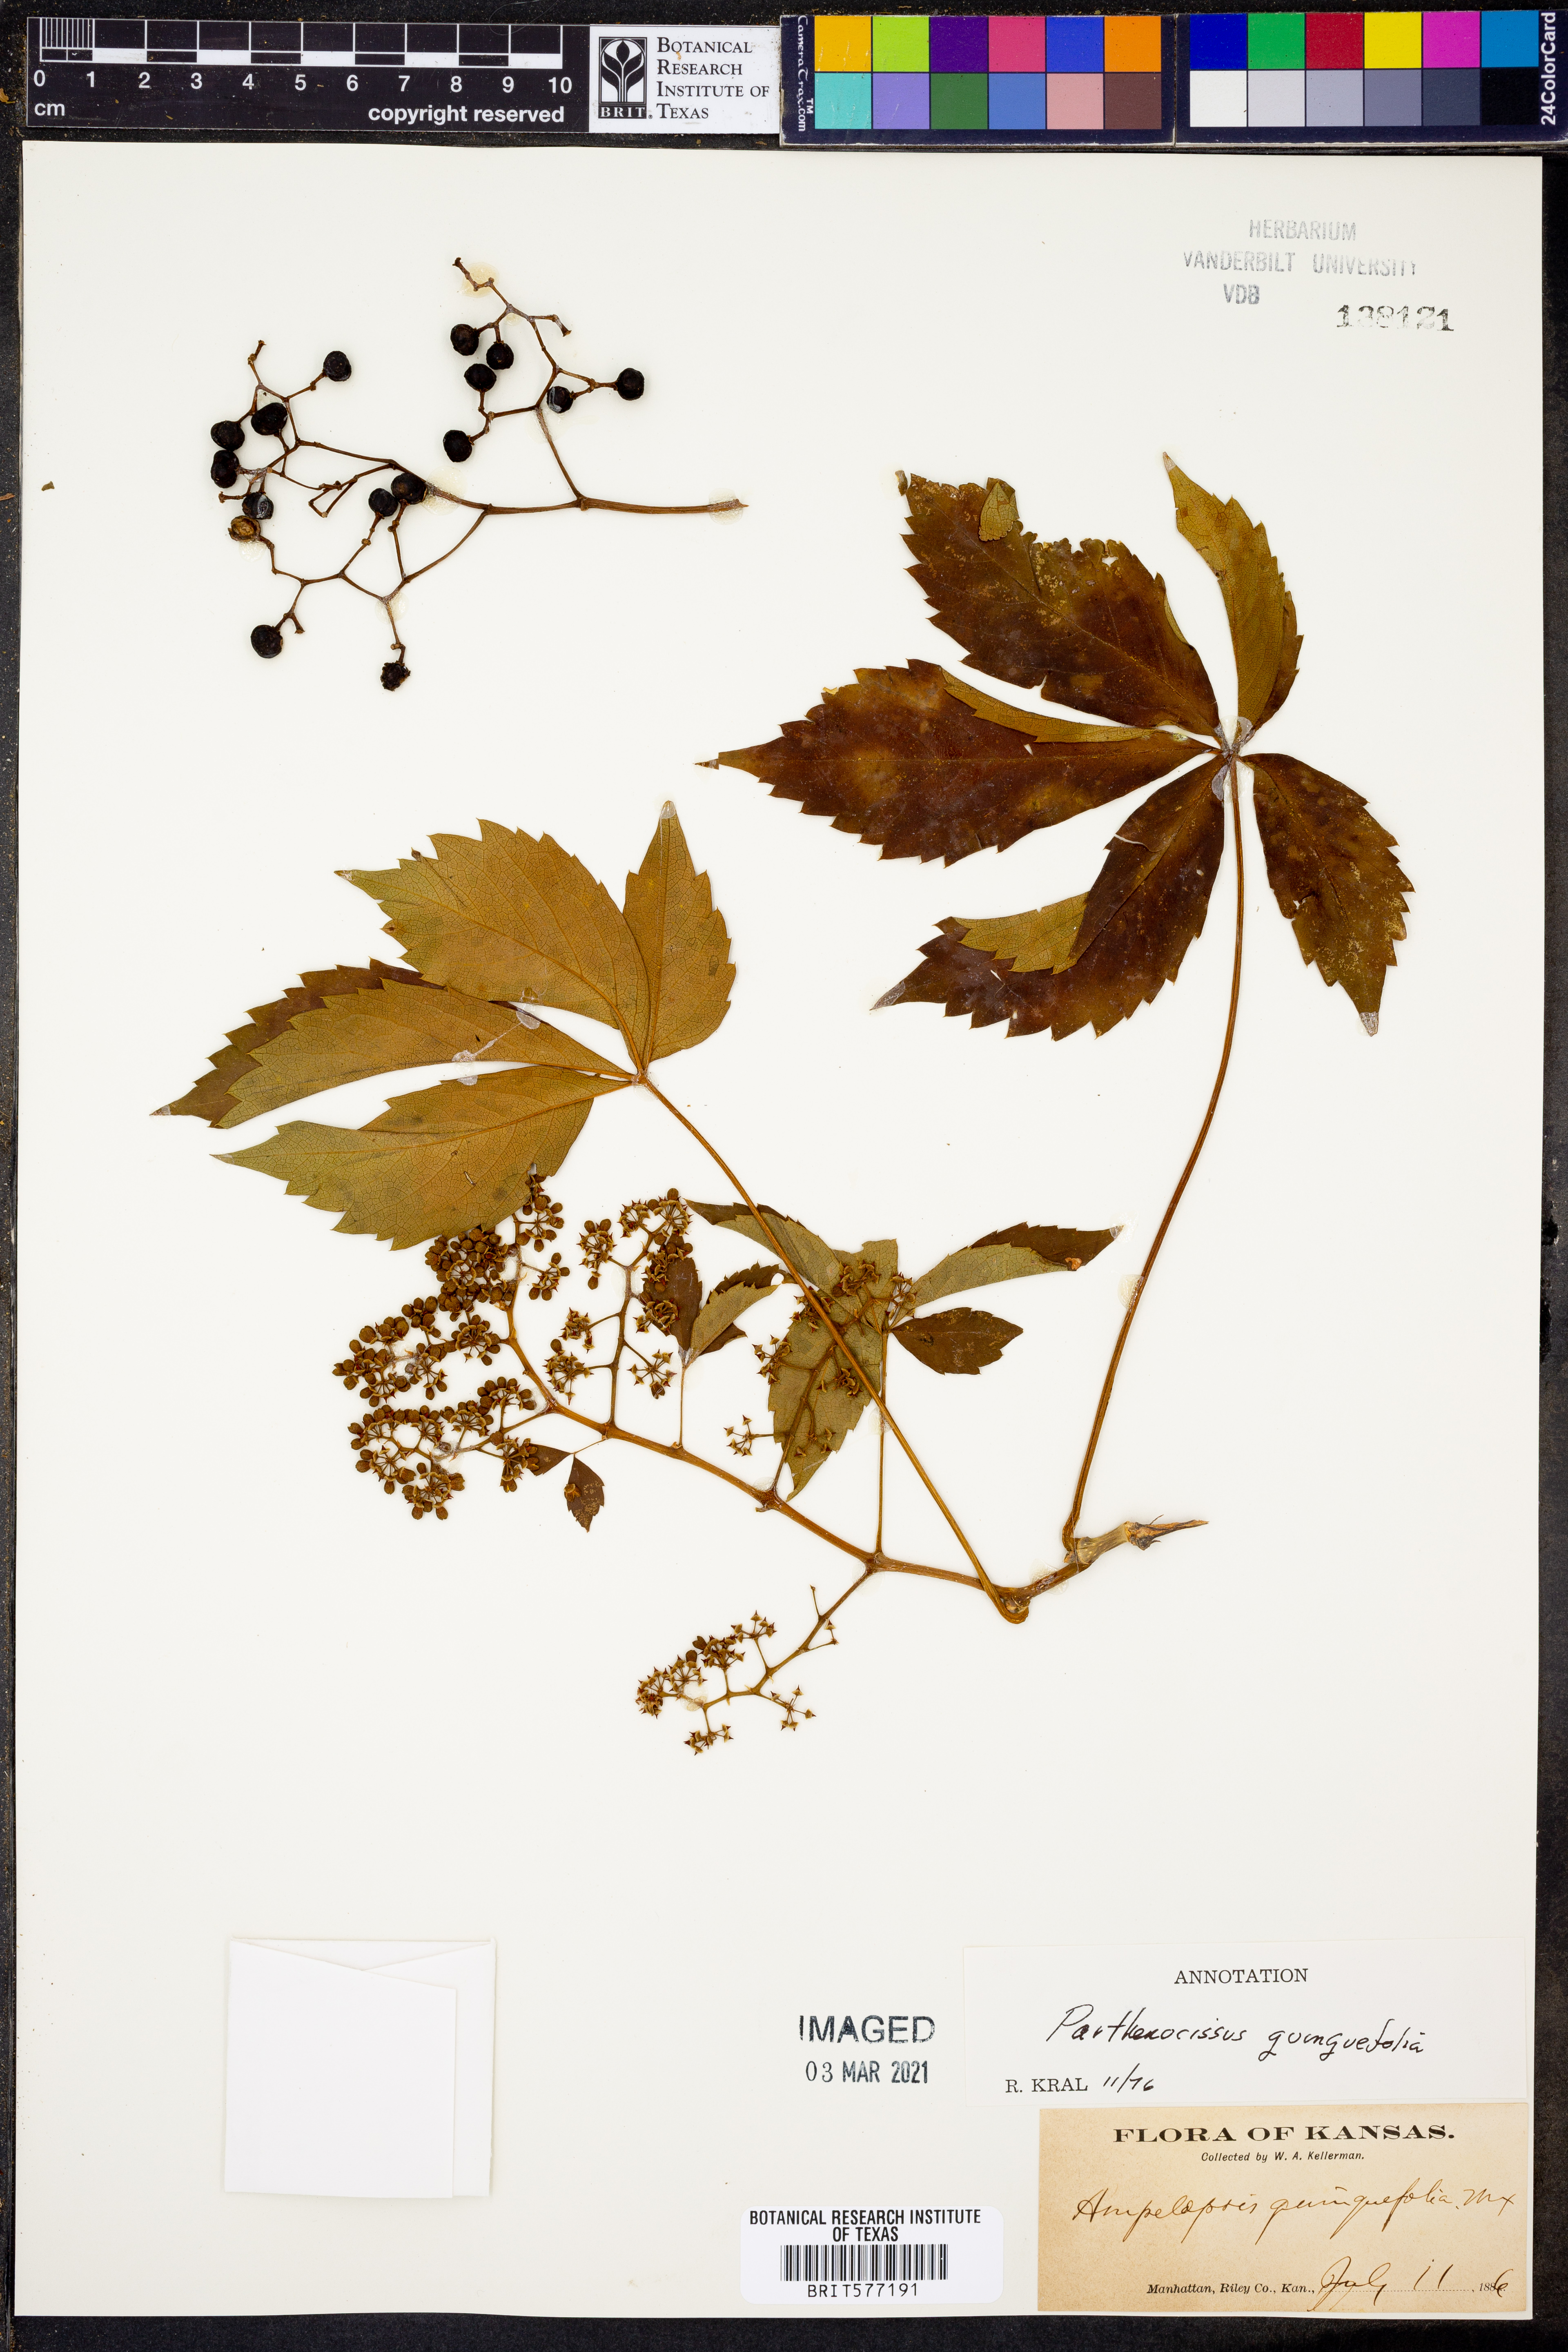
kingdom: Plantae
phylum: Tracheophyta
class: Magnoliopsida
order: Vitales
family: Vitaceae
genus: Parthenocissus
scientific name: Parthenocissus quinquefolia
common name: Virginia-creeper
